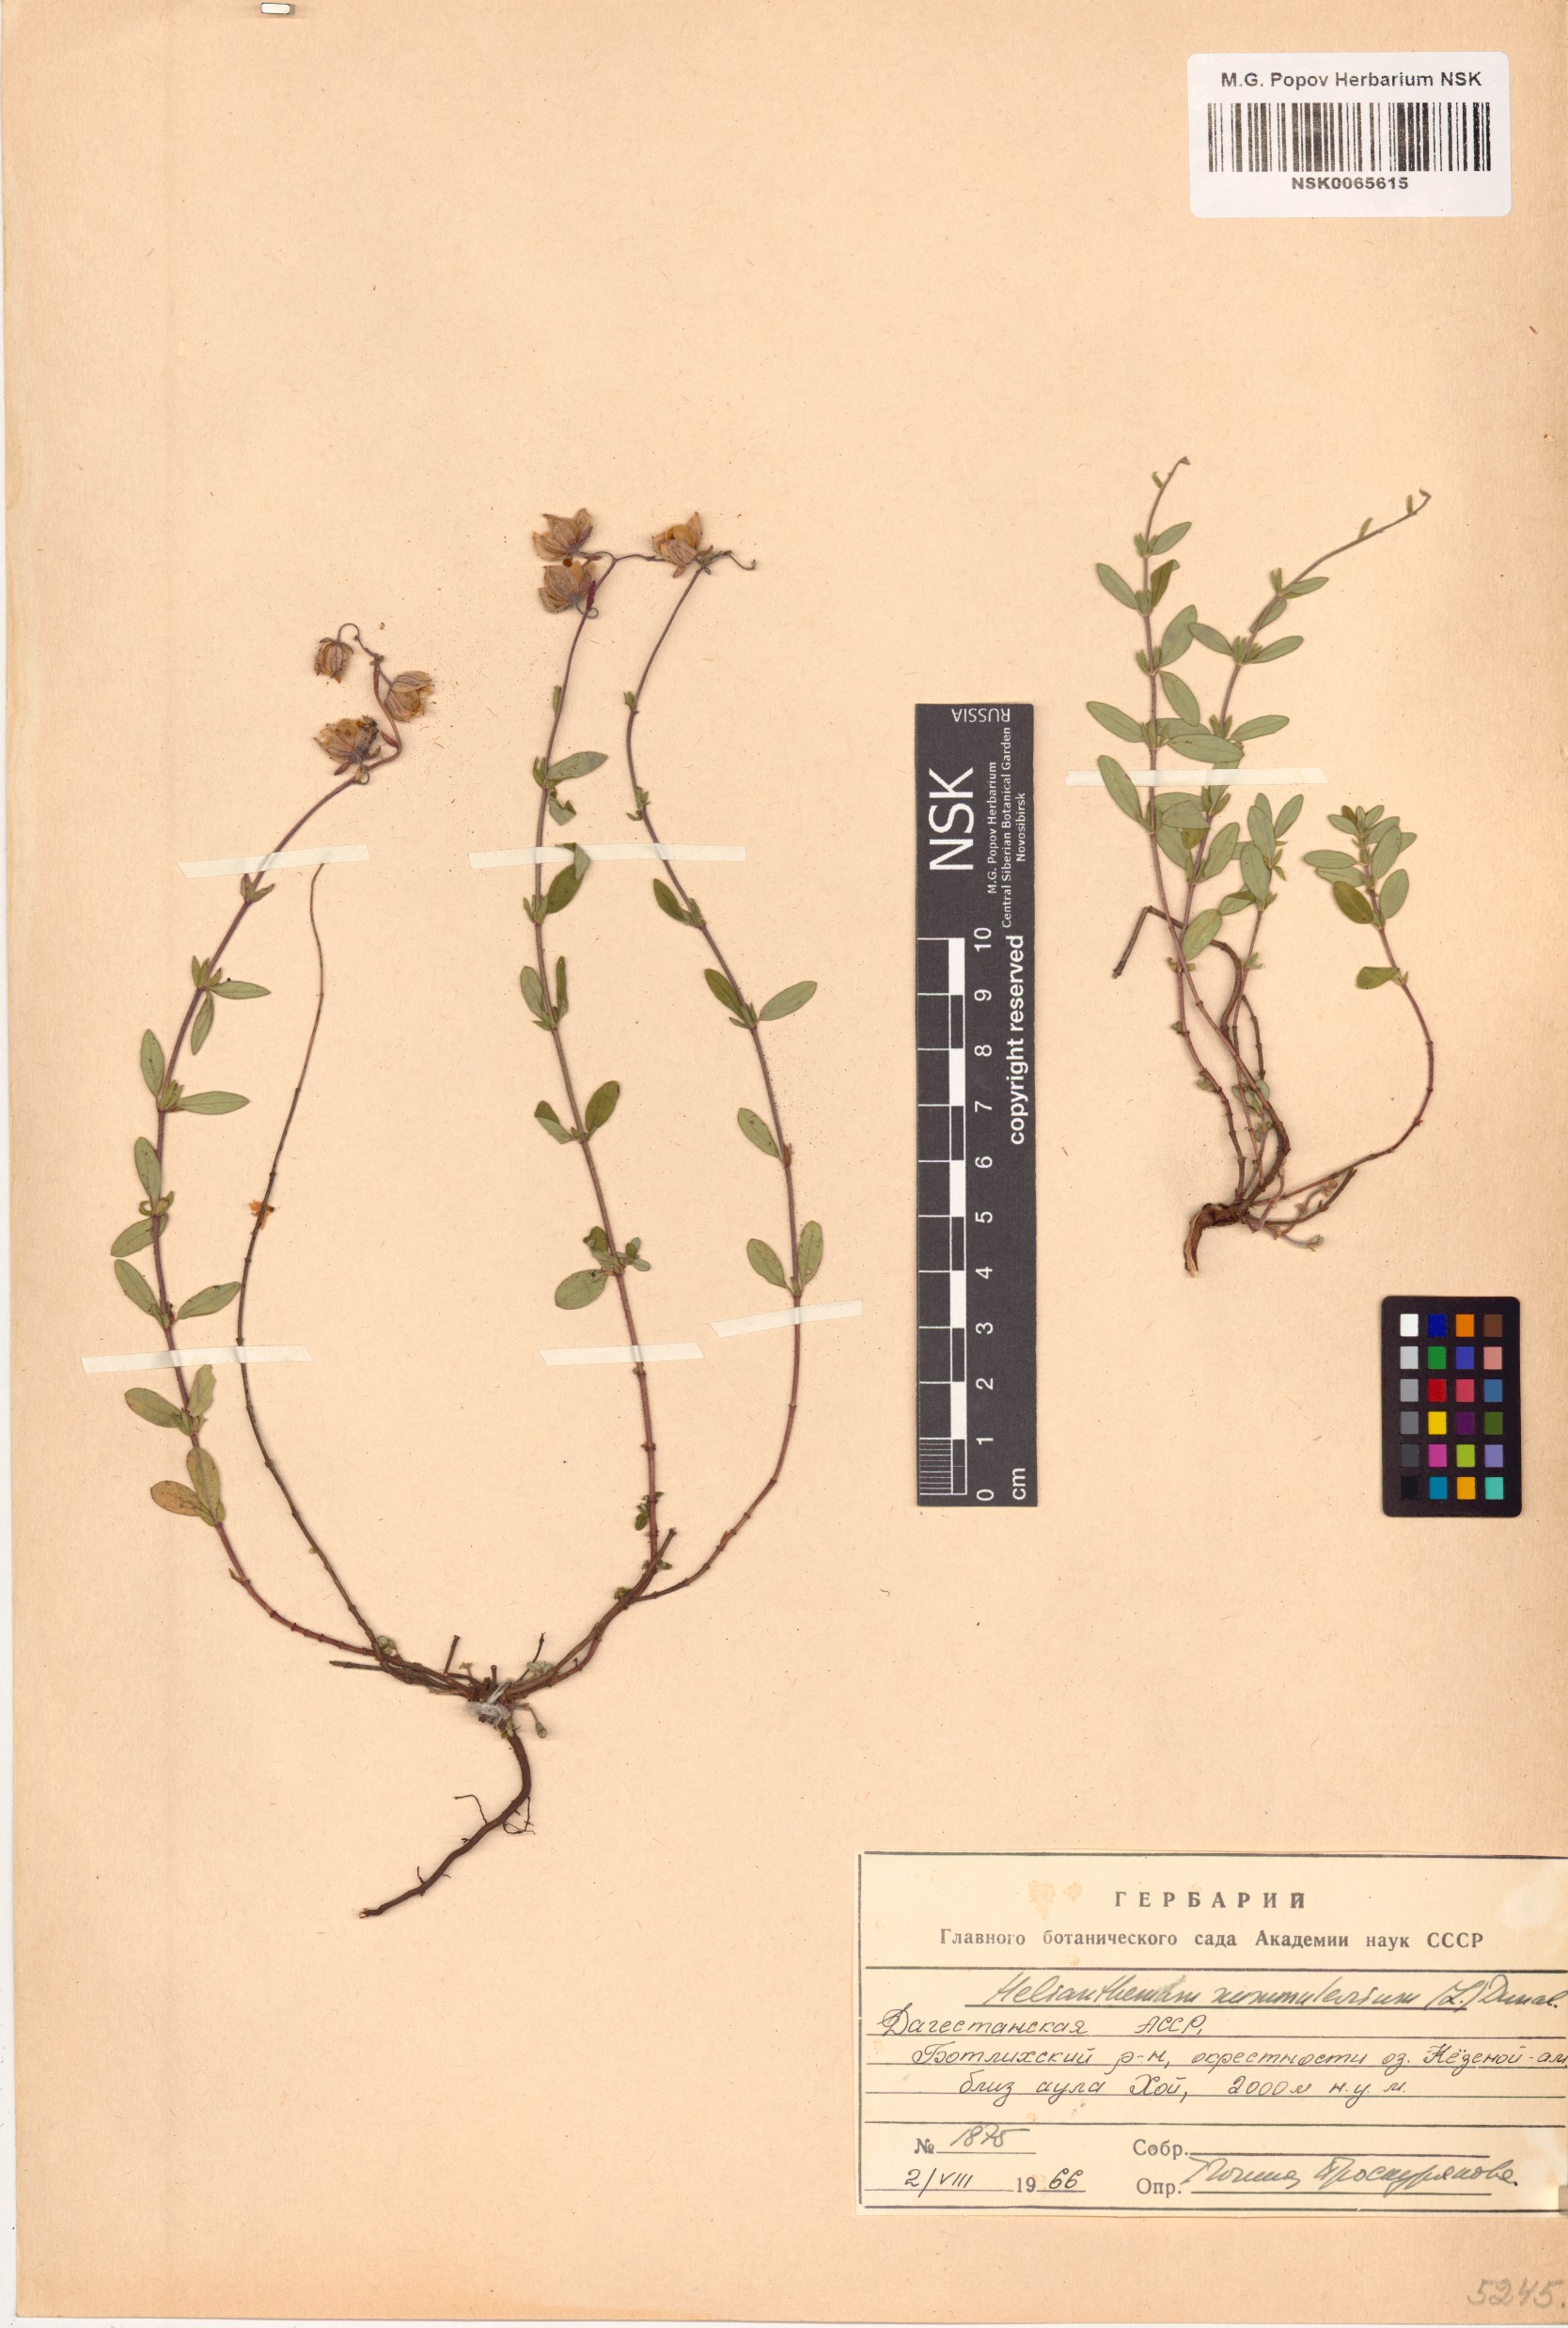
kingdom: Plantae
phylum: Tracheophyta
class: Magnoliopsida
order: Malvales
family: Cistaceae
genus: Helianthemum
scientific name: Helianthemum nummularium
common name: Common rock-rose
